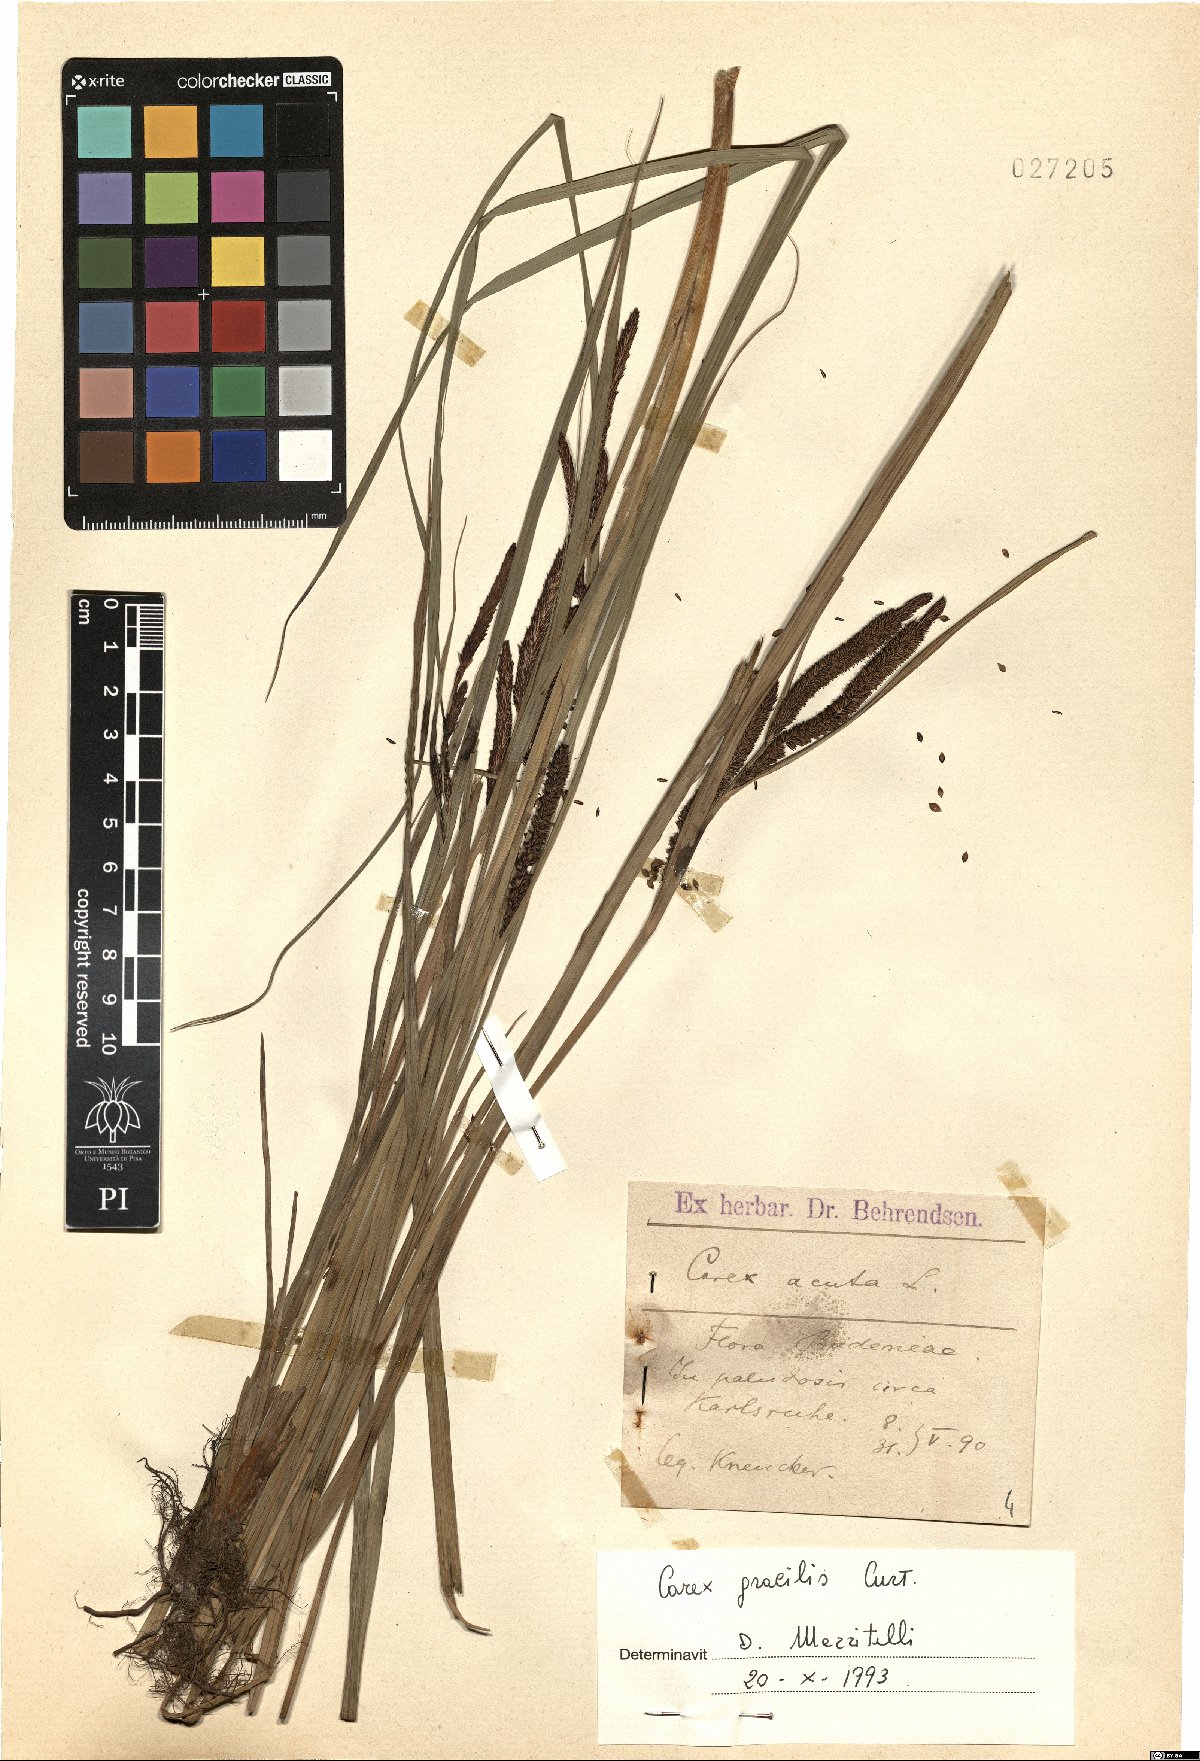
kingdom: Plantae
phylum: Tracheophyta
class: Liliopsida
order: Poales
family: Cyperaceae
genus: Carex
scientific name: Carex acuta
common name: Slender tufted-sedge
